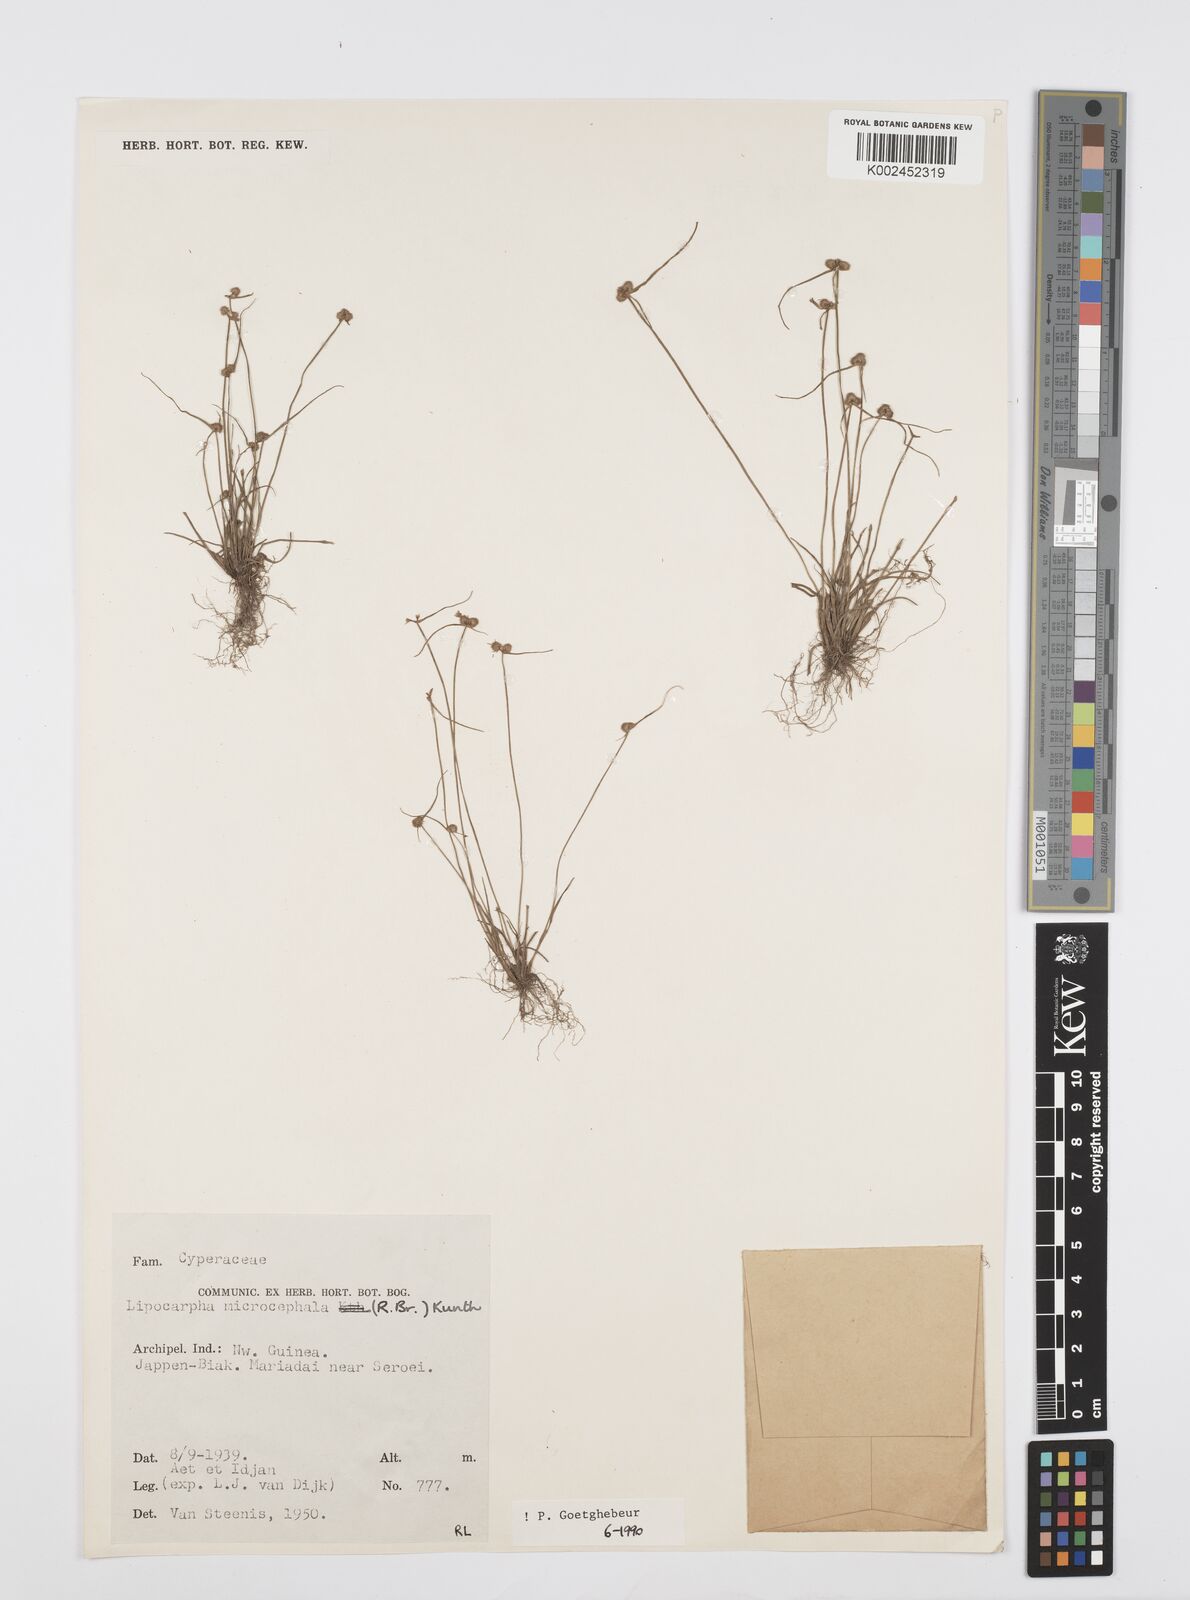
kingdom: Plantae
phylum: Tracheophyta
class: Liliopsida
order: Poales
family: Cyperaceae
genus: Cyperus
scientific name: Cyperus microcephalus
